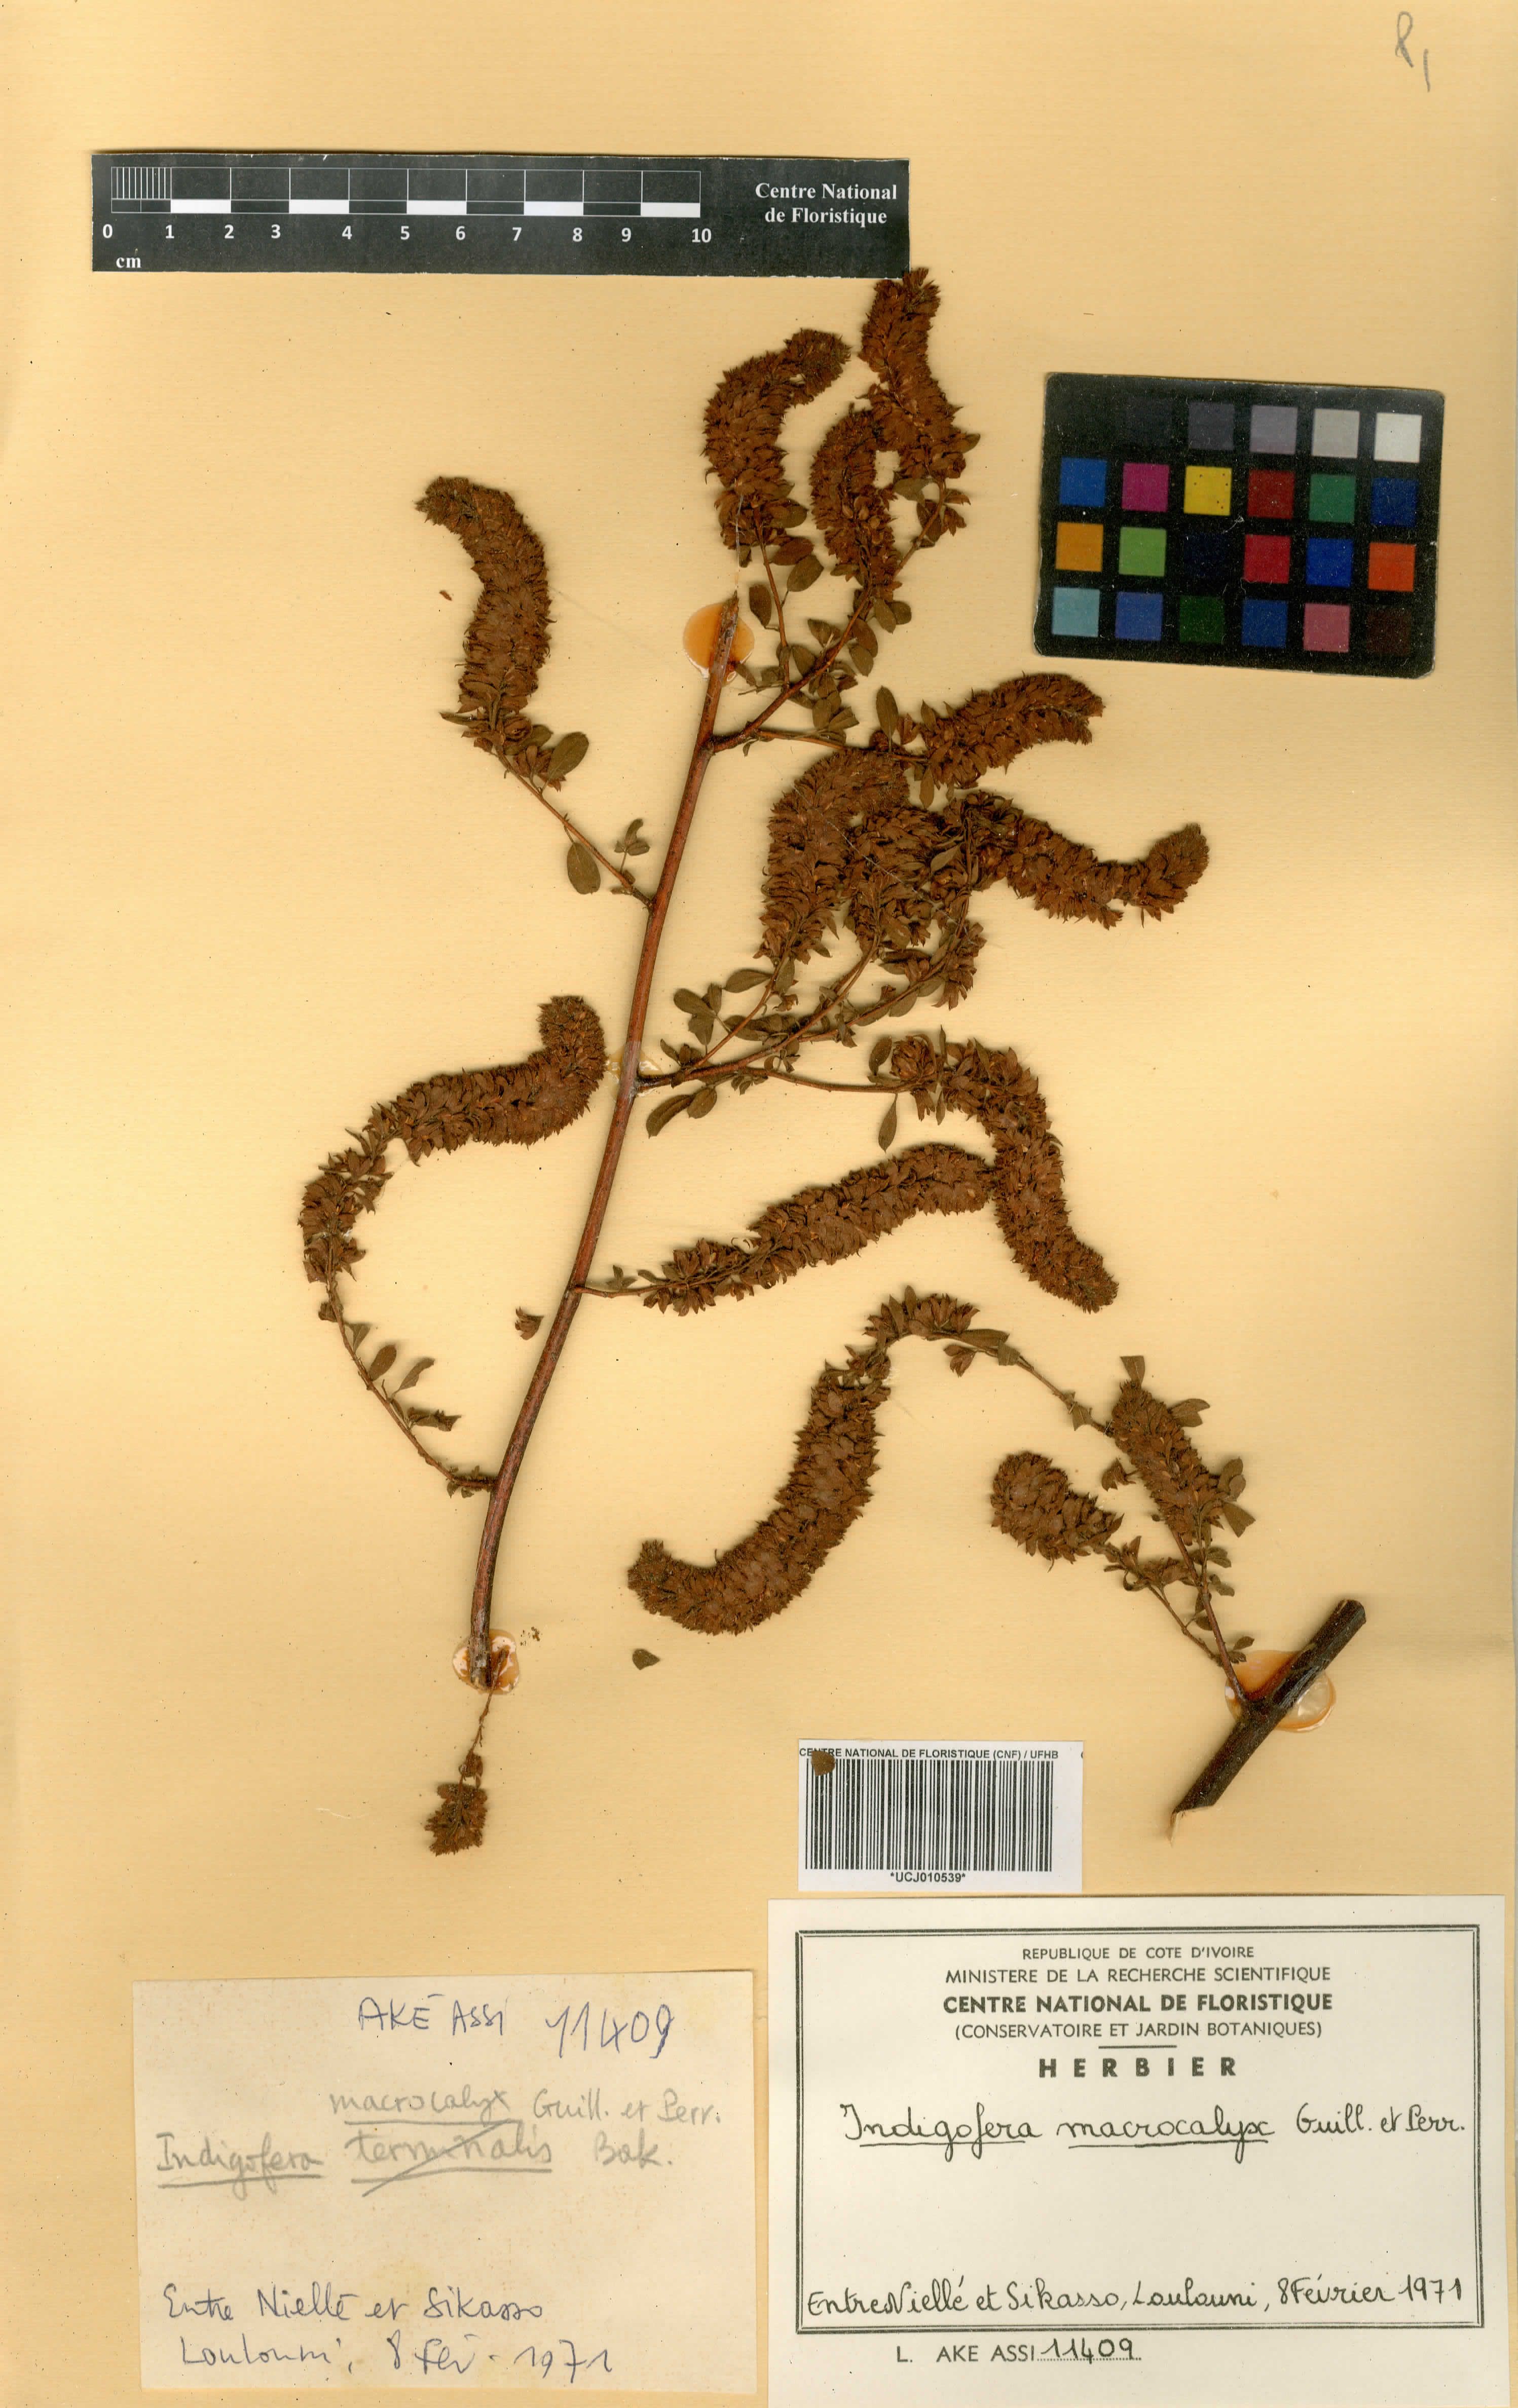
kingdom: Plantae
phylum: Tracheophyta
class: Magnoliopsida
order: Fabales
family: Fabaceae
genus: Indigofera
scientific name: Indigofera macrocalyx
